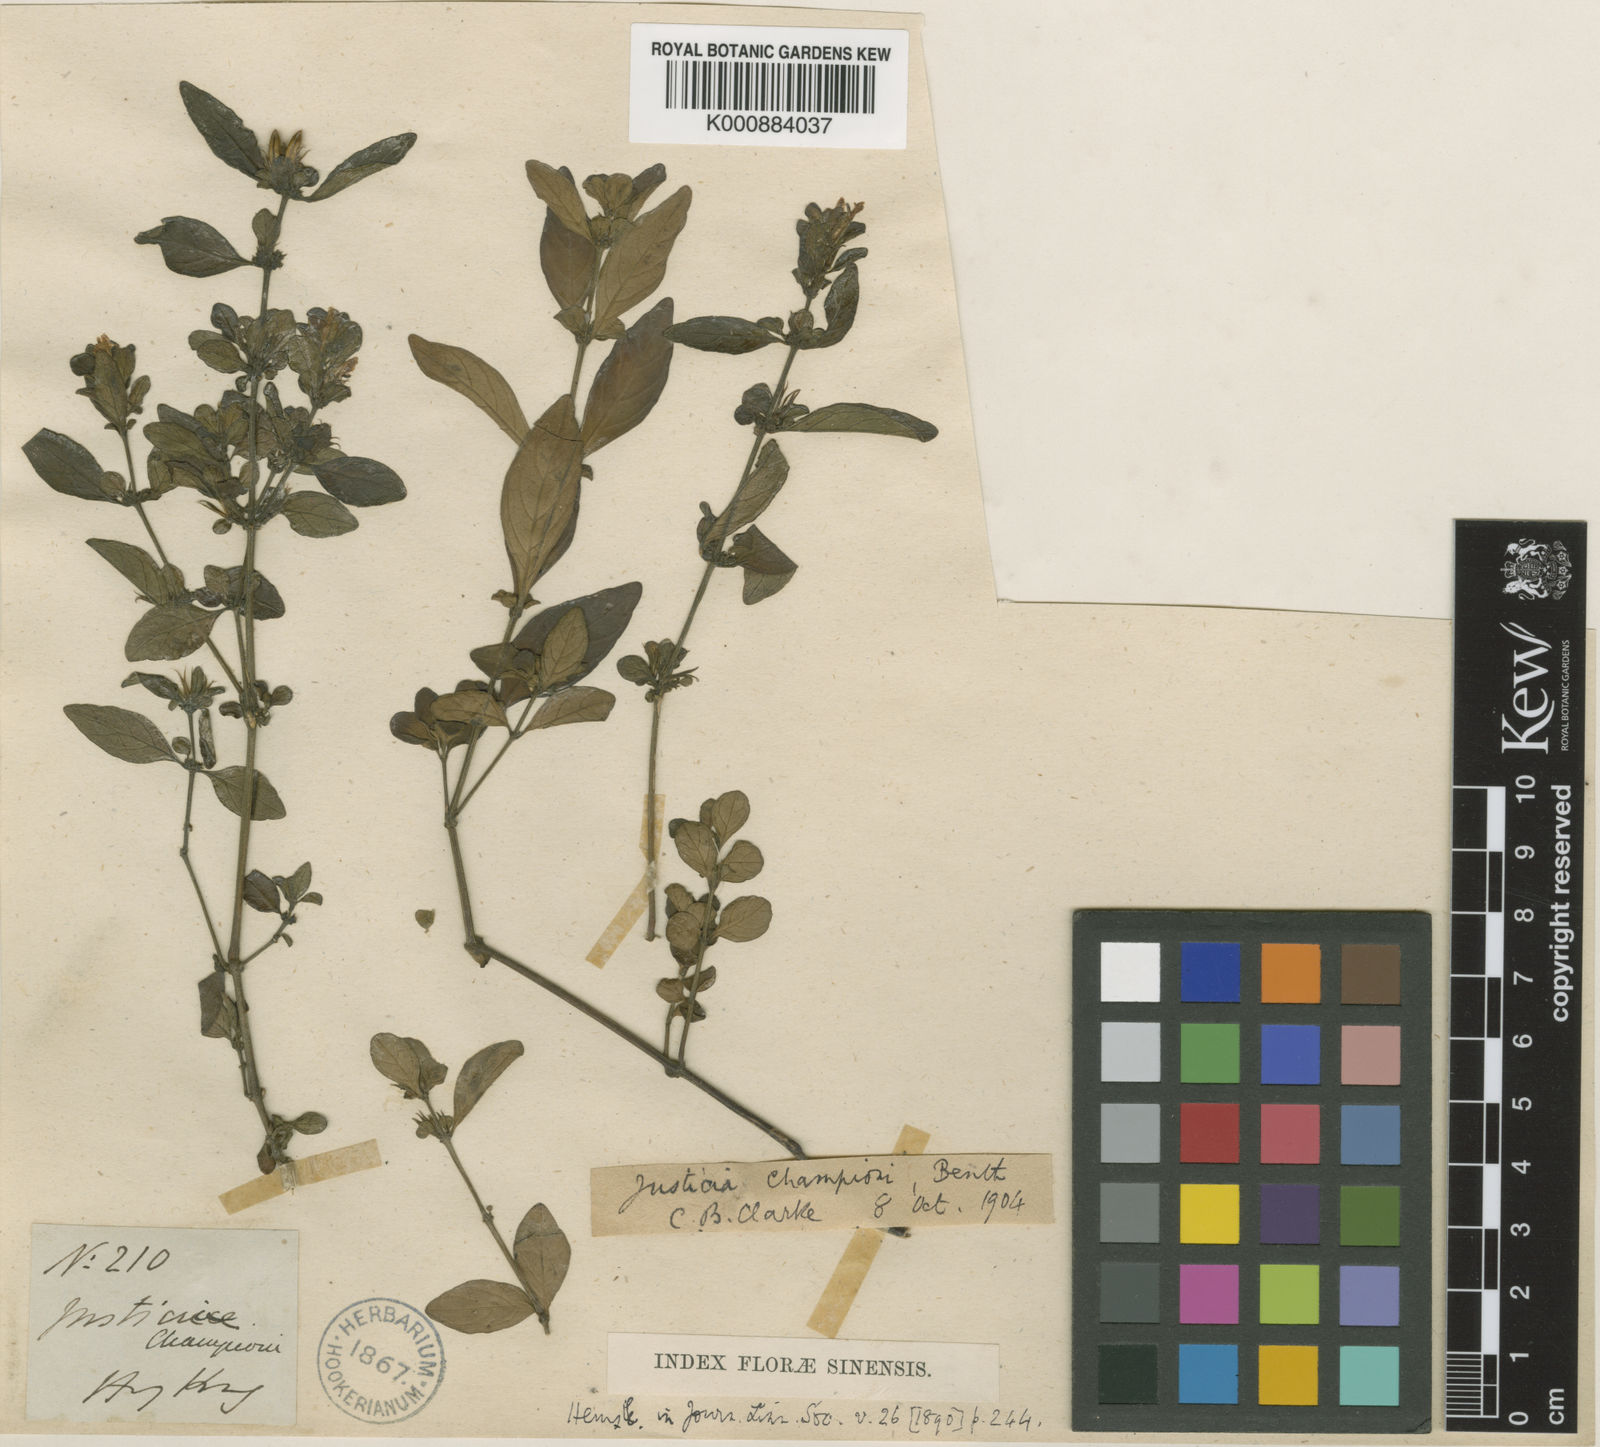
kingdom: Plantae
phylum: Tracheophyta
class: Magnoliopsida
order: Lamiales
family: Acanthaceae
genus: Justicia
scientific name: Justicia championii
